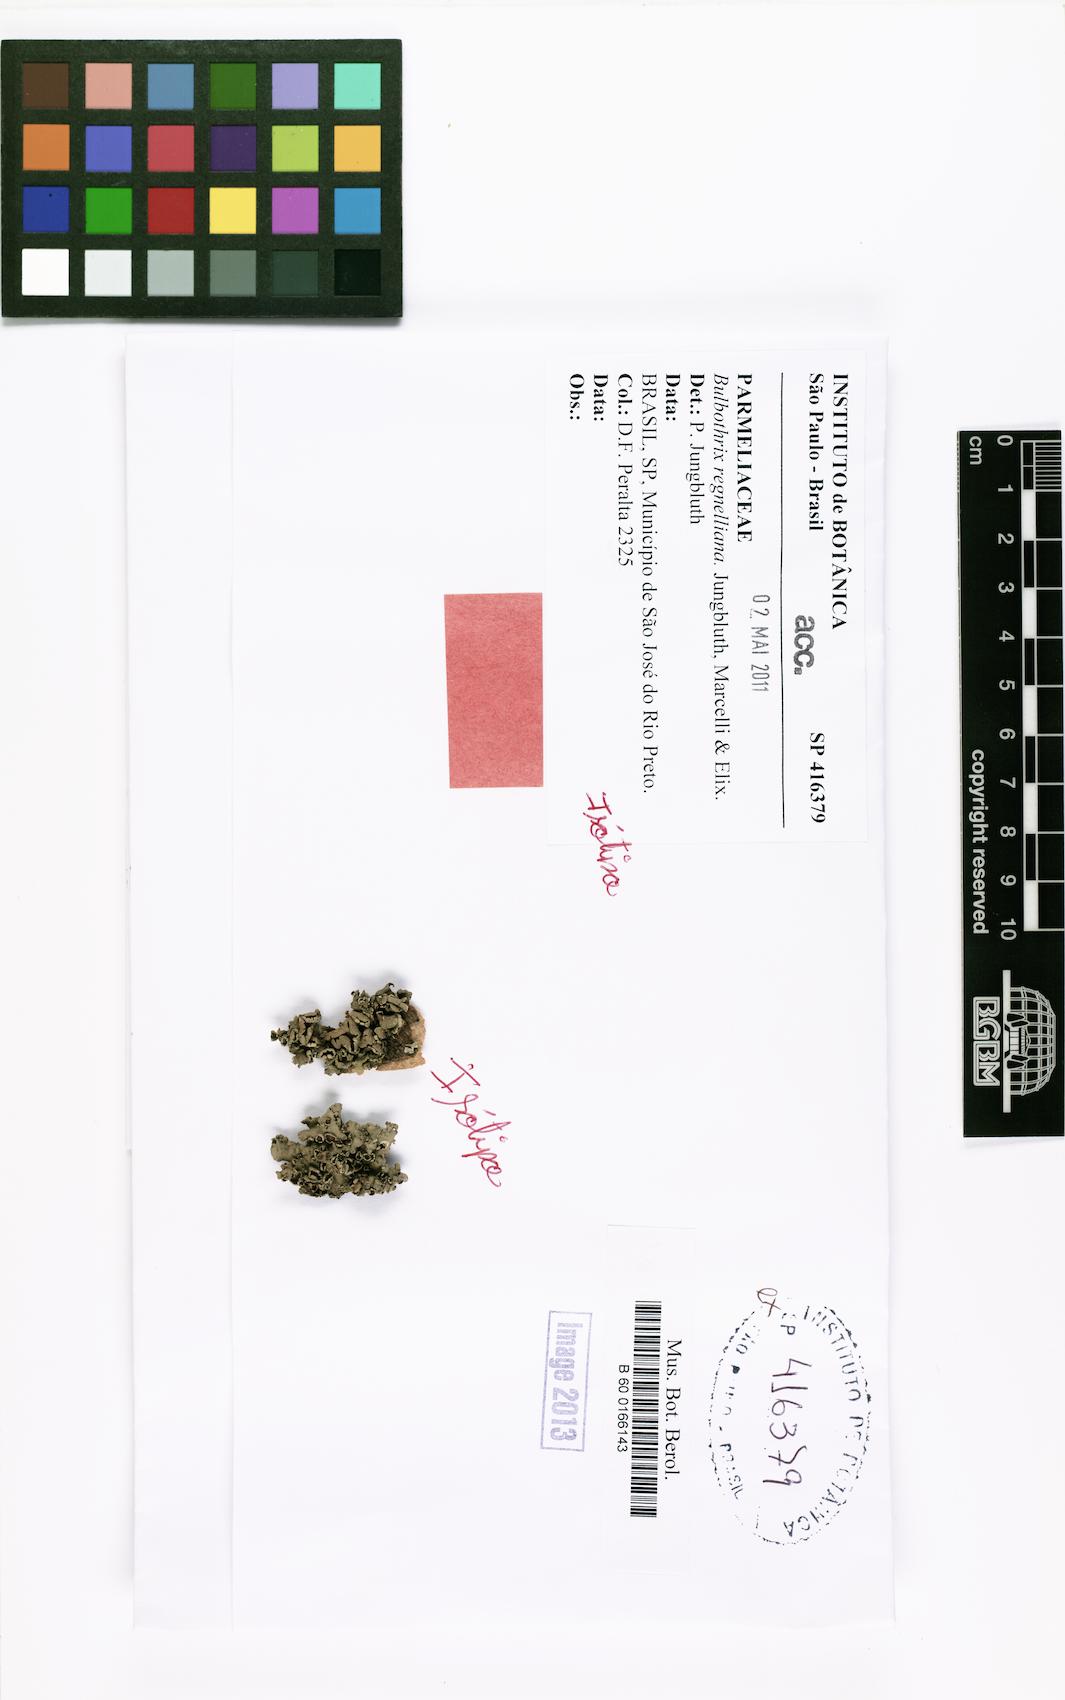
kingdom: Fungi
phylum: Ascomycota
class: Lecanoromycetes
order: Lecanorales
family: Parmeliaceae
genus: Bulbothrix
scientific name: Bulbothrix regnelliana
